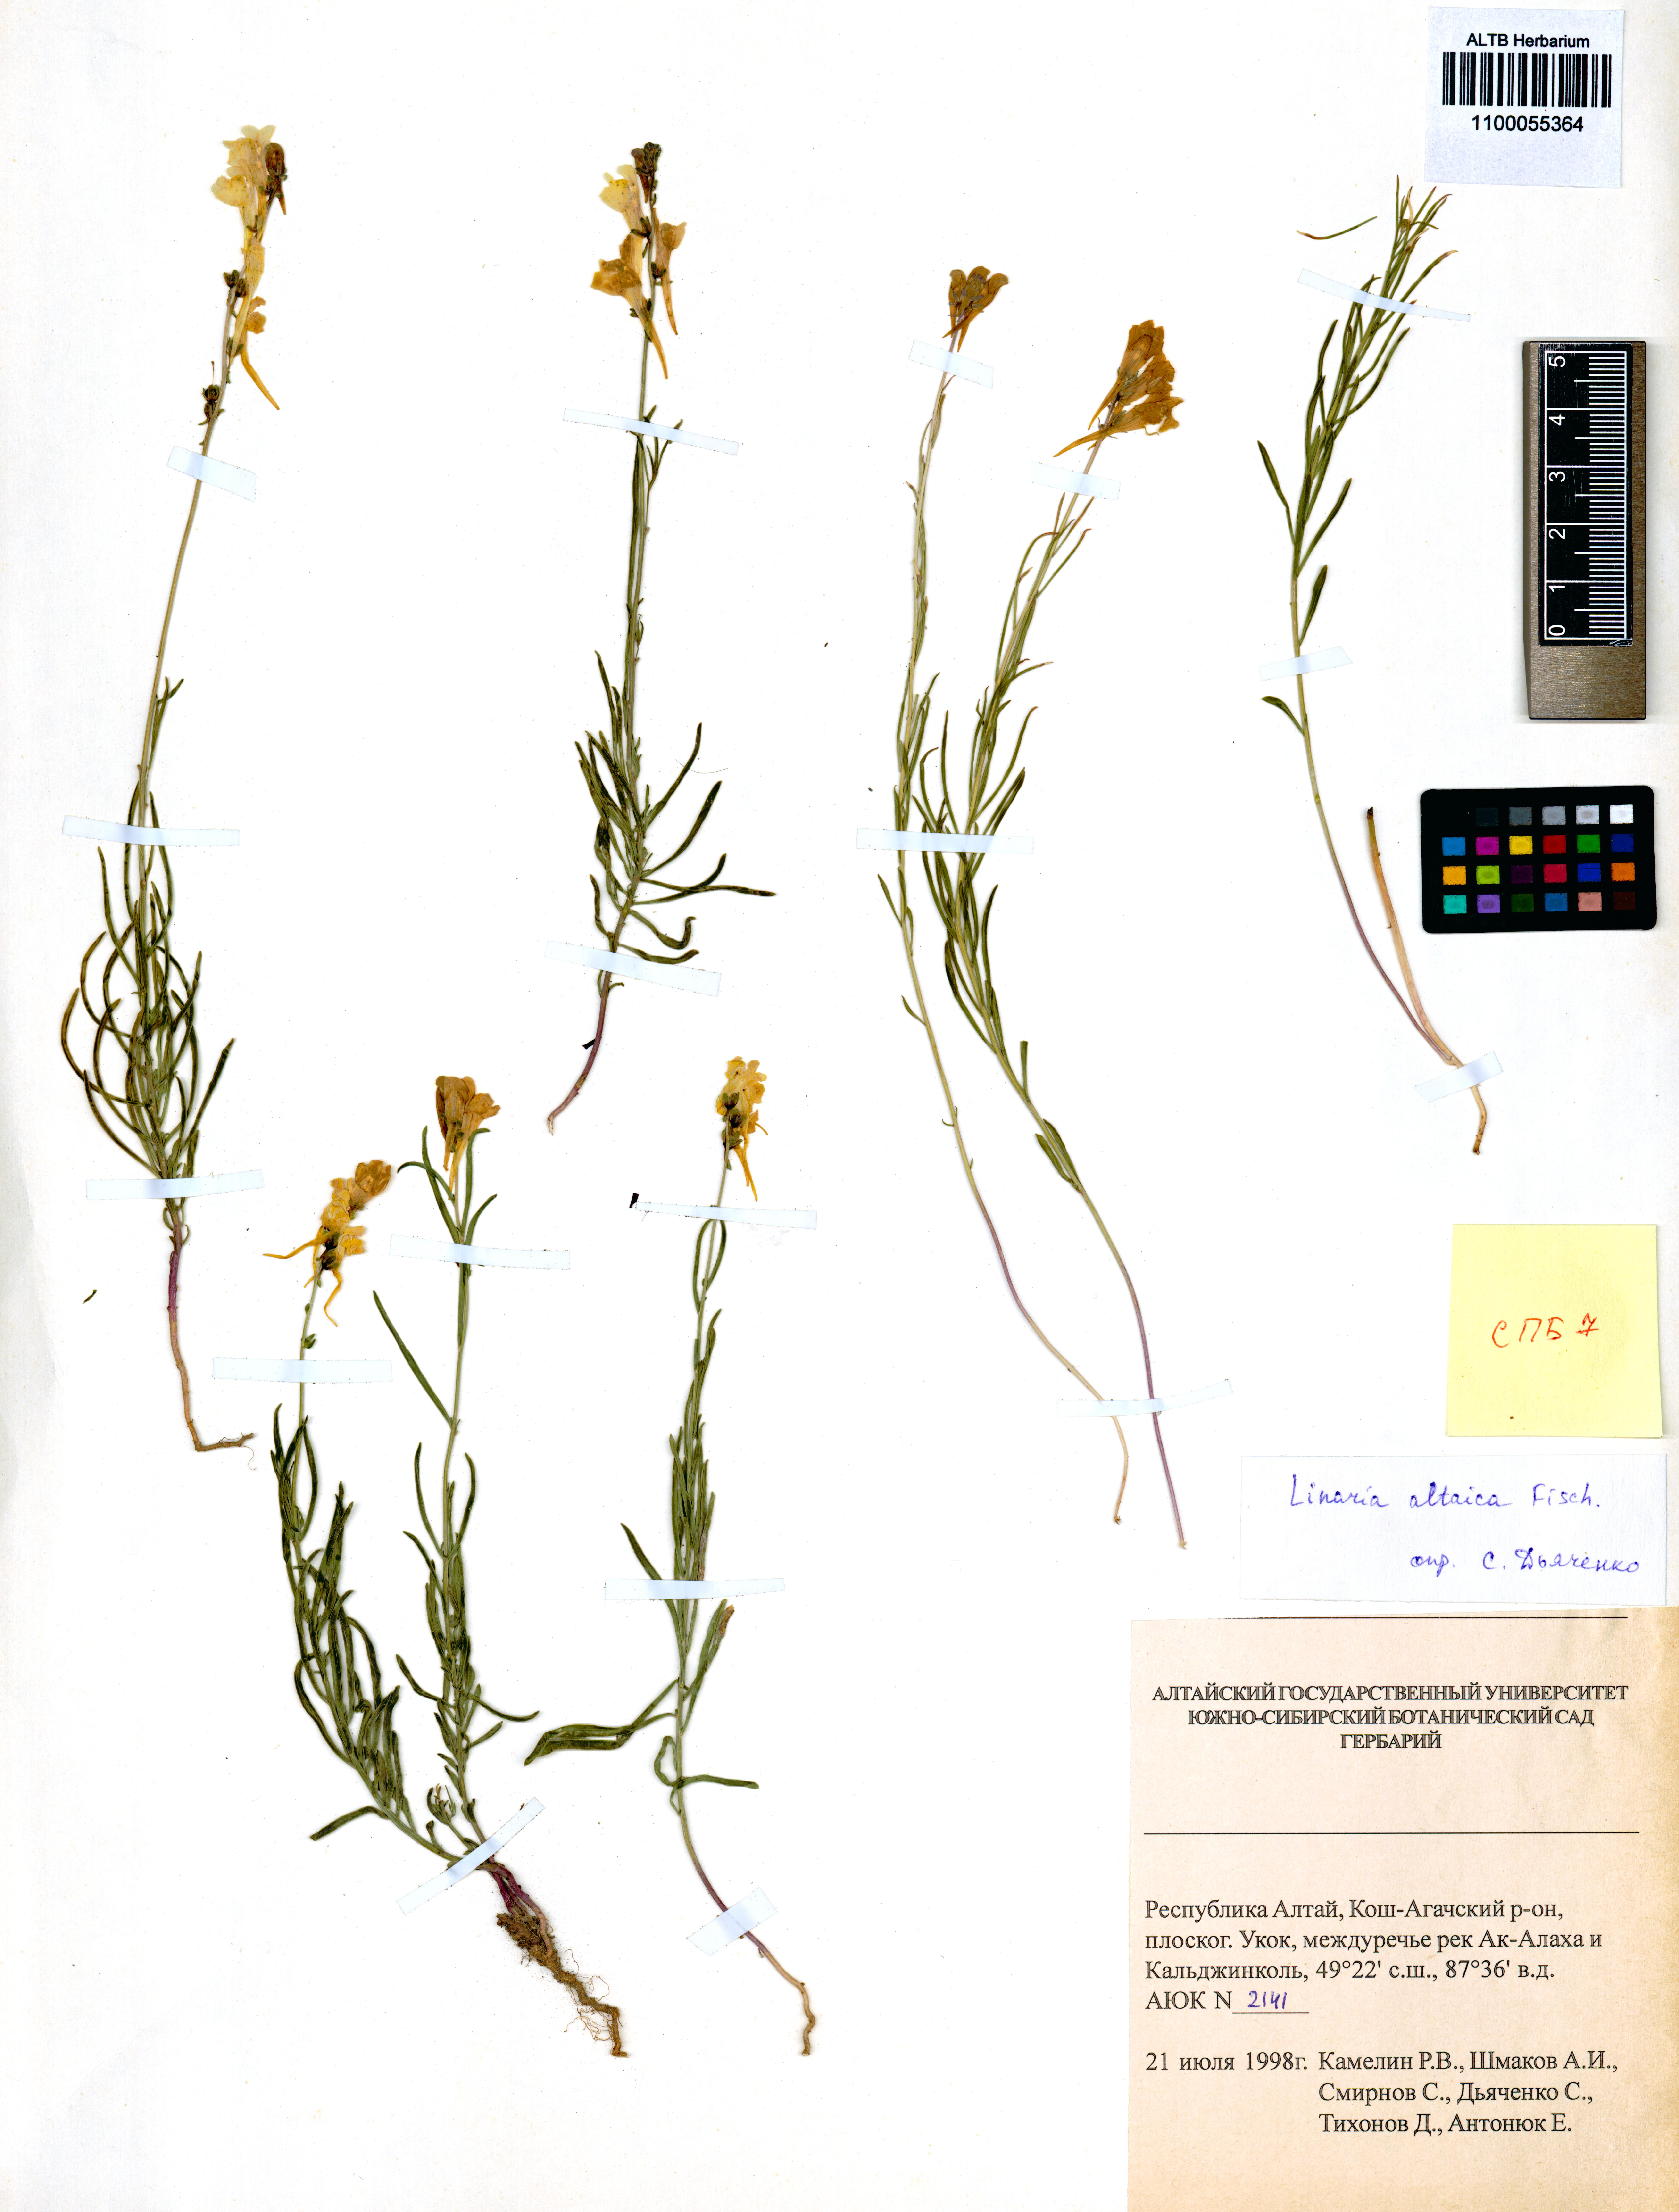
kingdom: Plantae
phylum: Tracheophyta
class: Magnoliopsida
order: Lamiales
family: Plantaginaceae
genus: Linaria
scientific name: Linaria altaica
